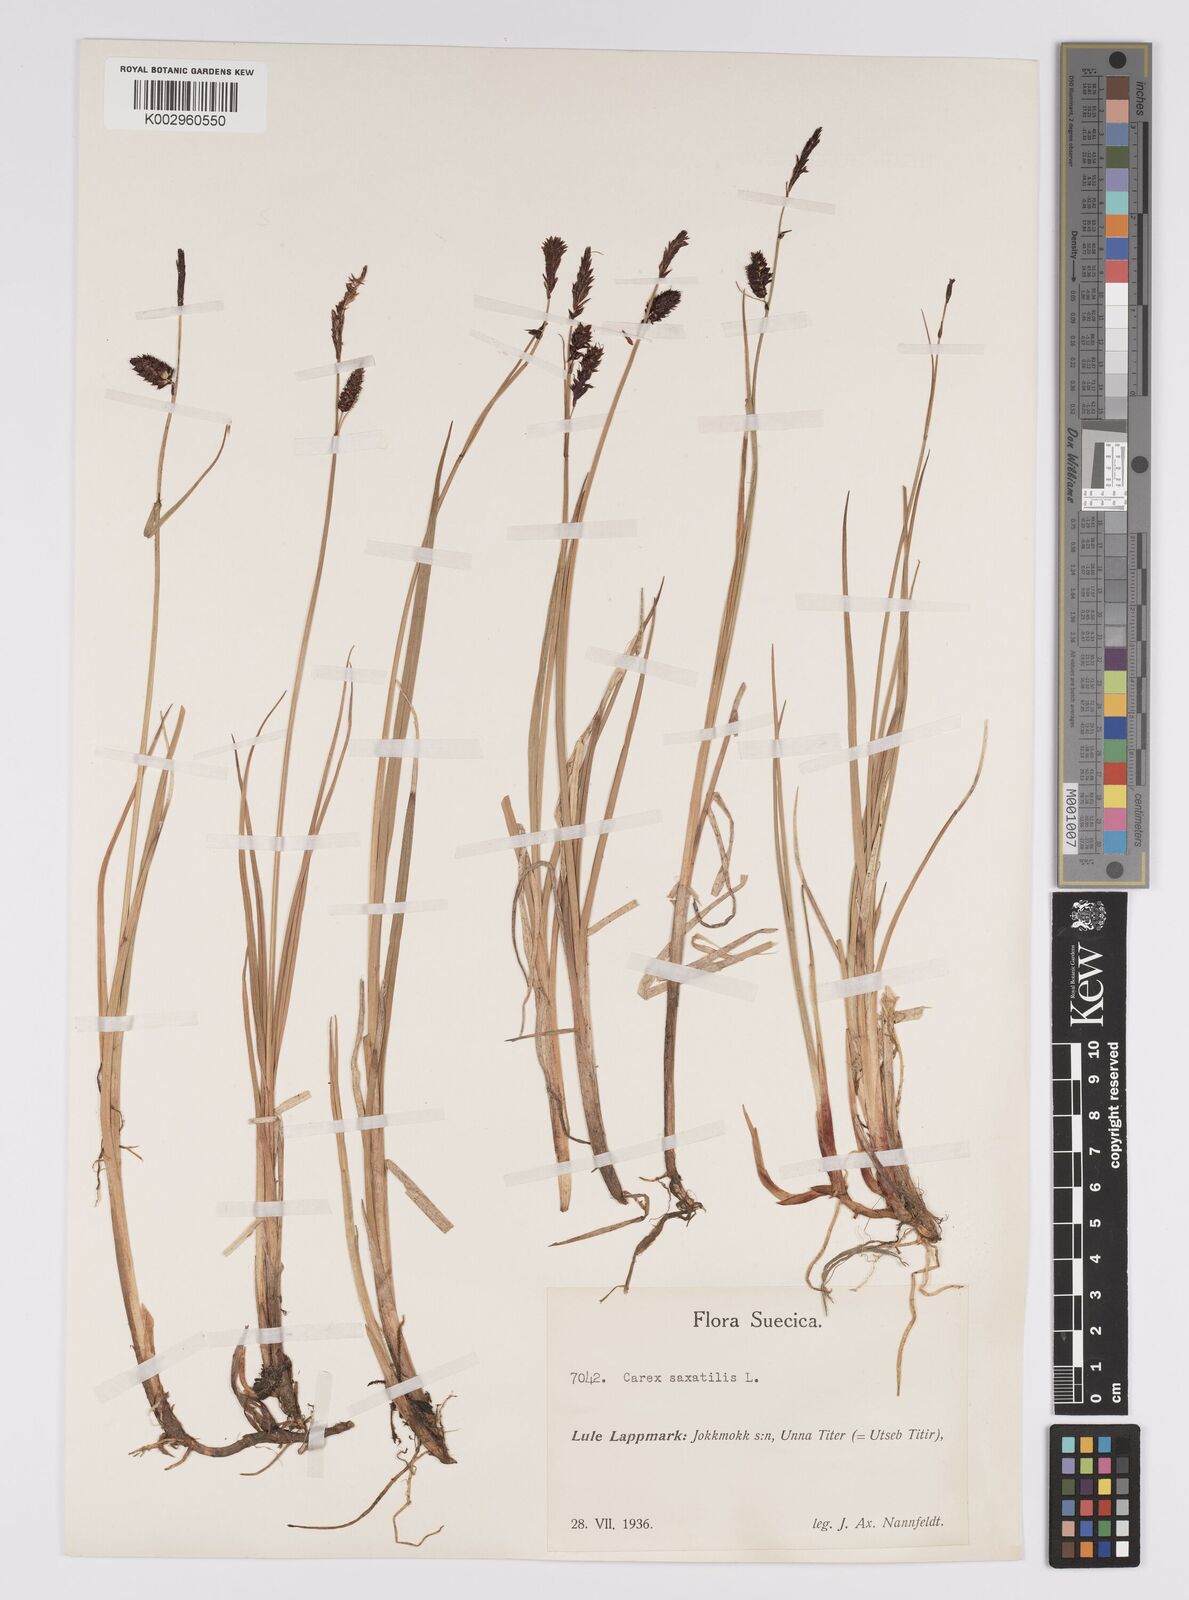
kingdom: Plantae
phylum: Tracheophyta
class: Liliopsida
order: Poales
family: Cyperaceae
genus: Carex
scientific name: Carex saxatilis
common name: Russet sedge
